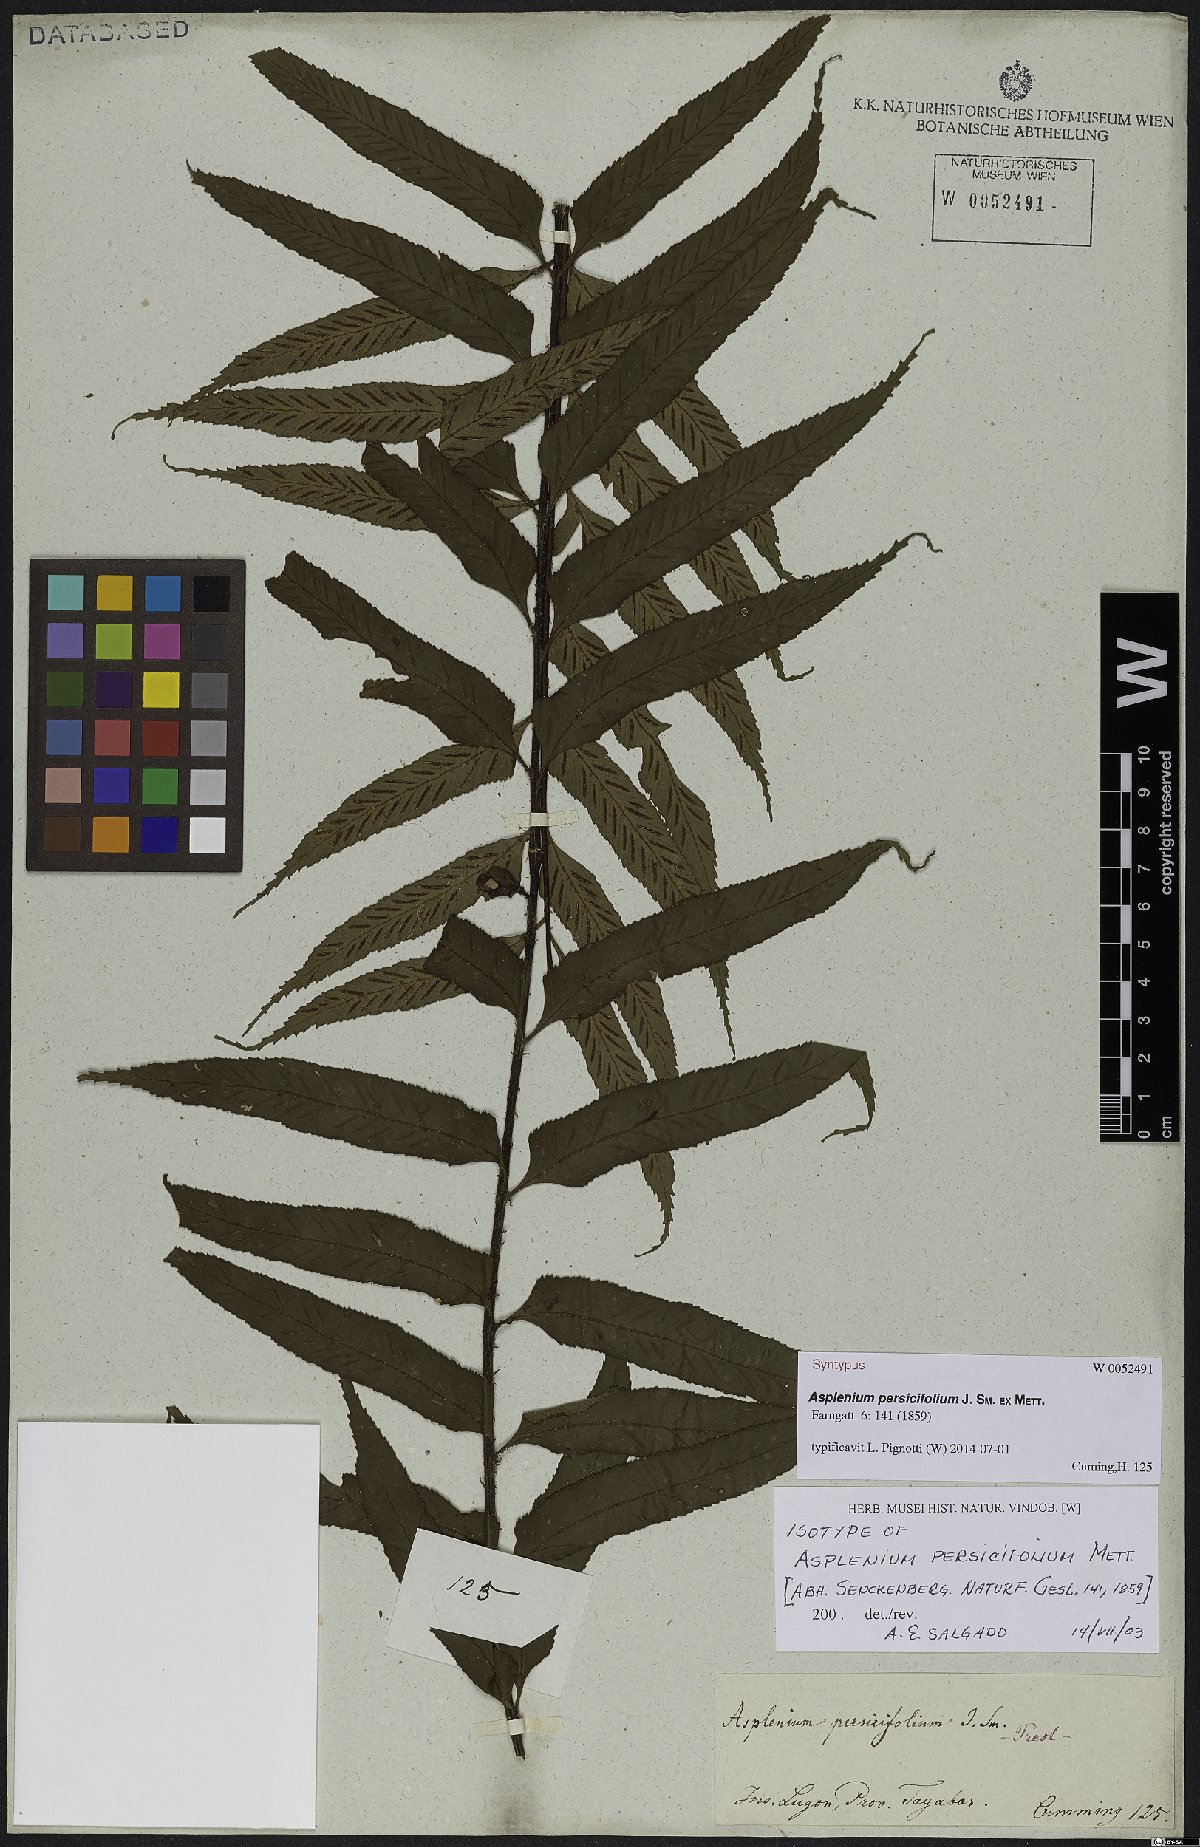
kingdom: Plantae
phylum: Tracheophyta
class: Polypodiopsida
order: Polypodiales
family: Aspleniaceae
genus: Asplenium
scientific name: Asplenium persicifolium
